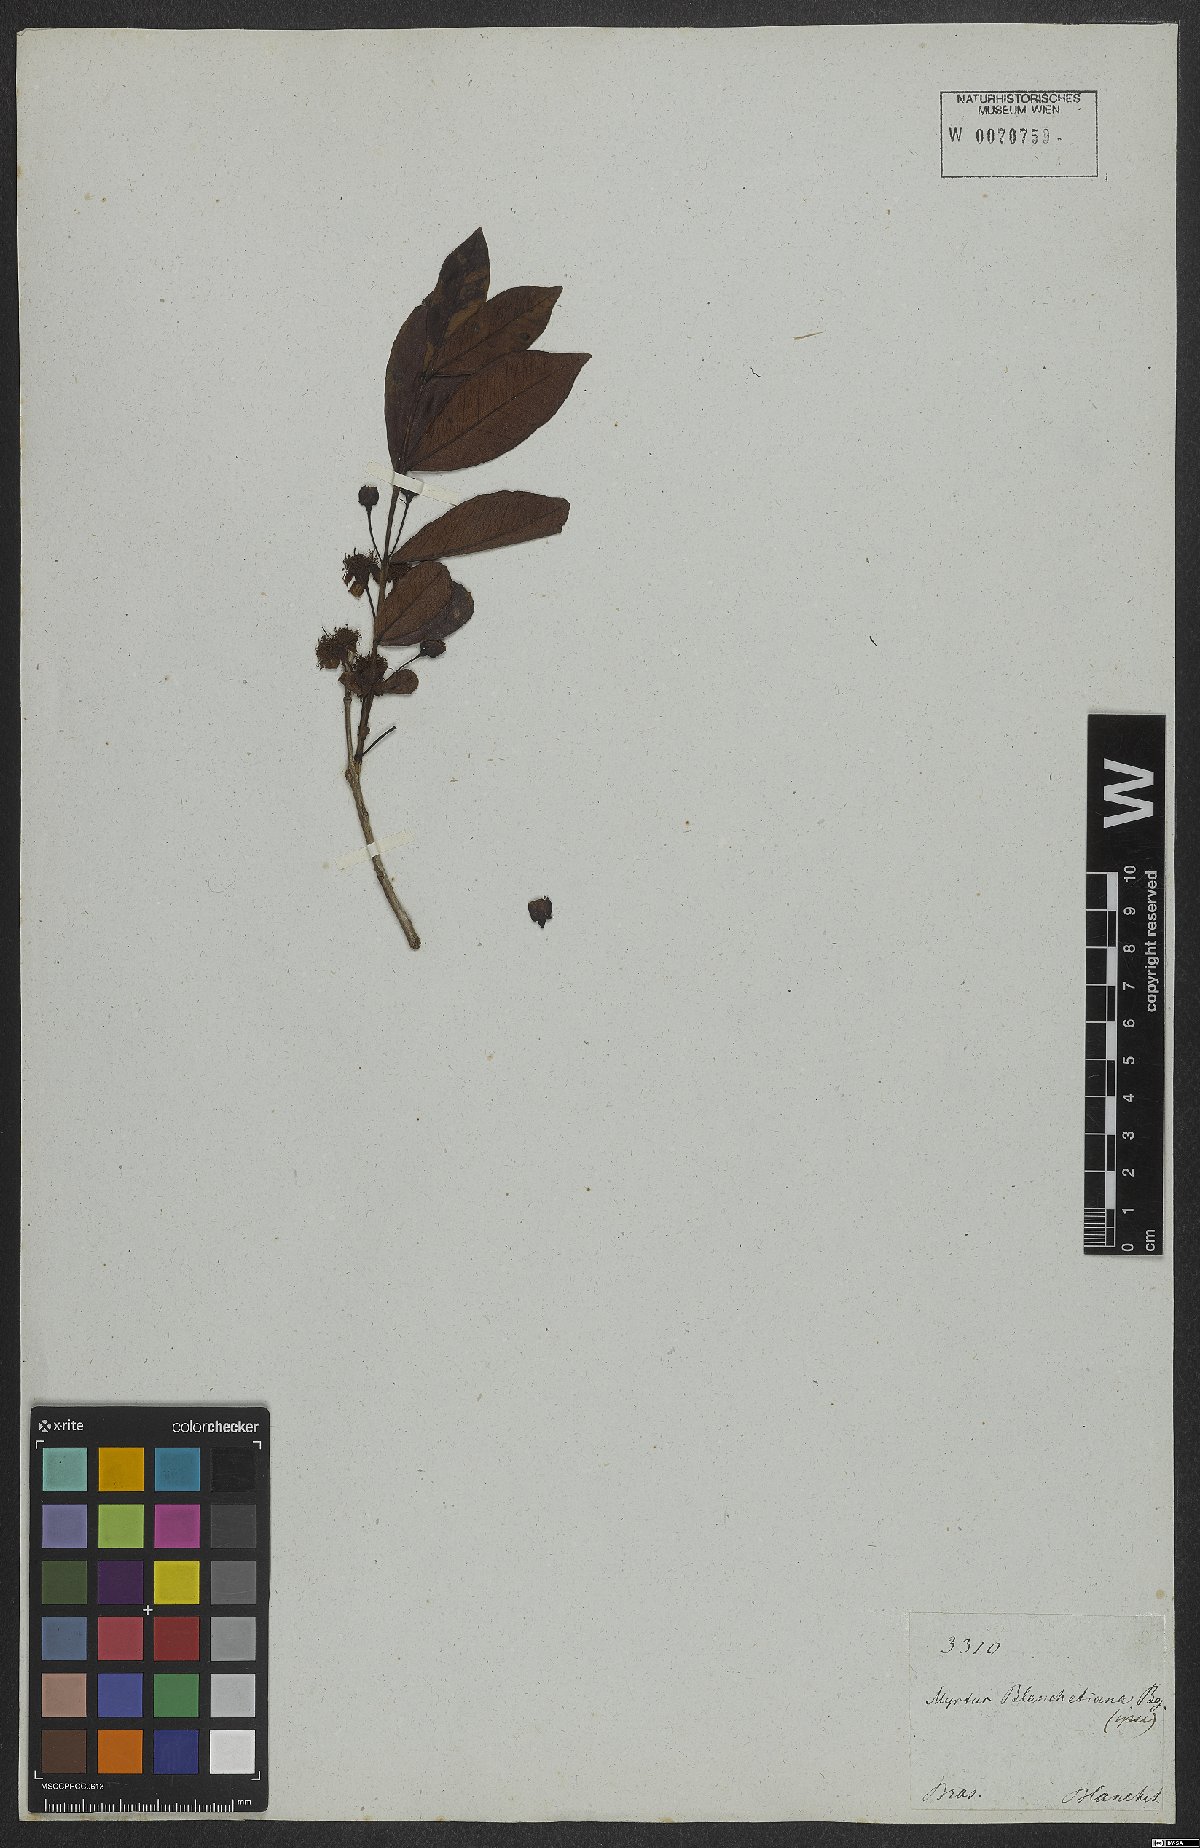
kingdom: Plantae
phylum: Tracheophyta
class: Magnoliopsida
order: Myrtales
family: Myrtaceae
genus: Psidium
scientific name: Psidium salutare
